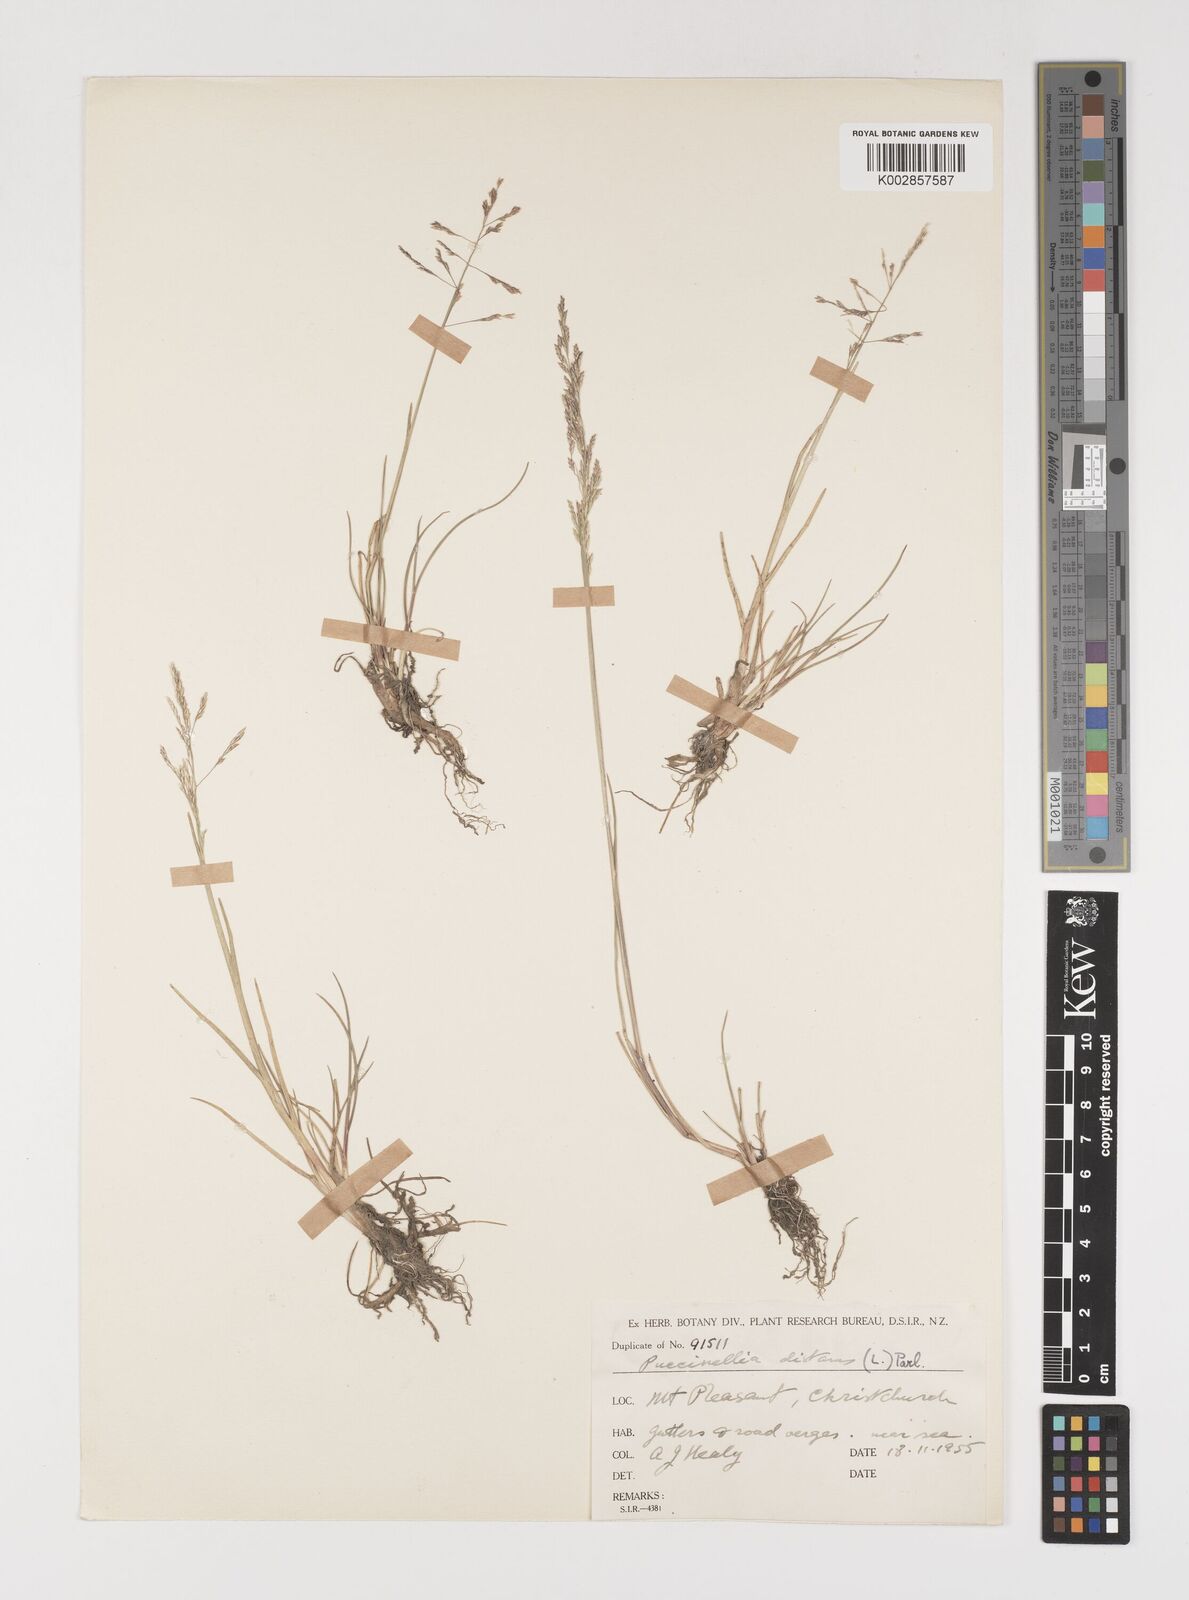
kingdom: Plantae
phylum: Tracheophyta
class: Liliopsida
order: Poales
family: Poaceae
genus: Puccinellia
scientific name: Puccinellia distans
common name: Weeping alkaligrass
